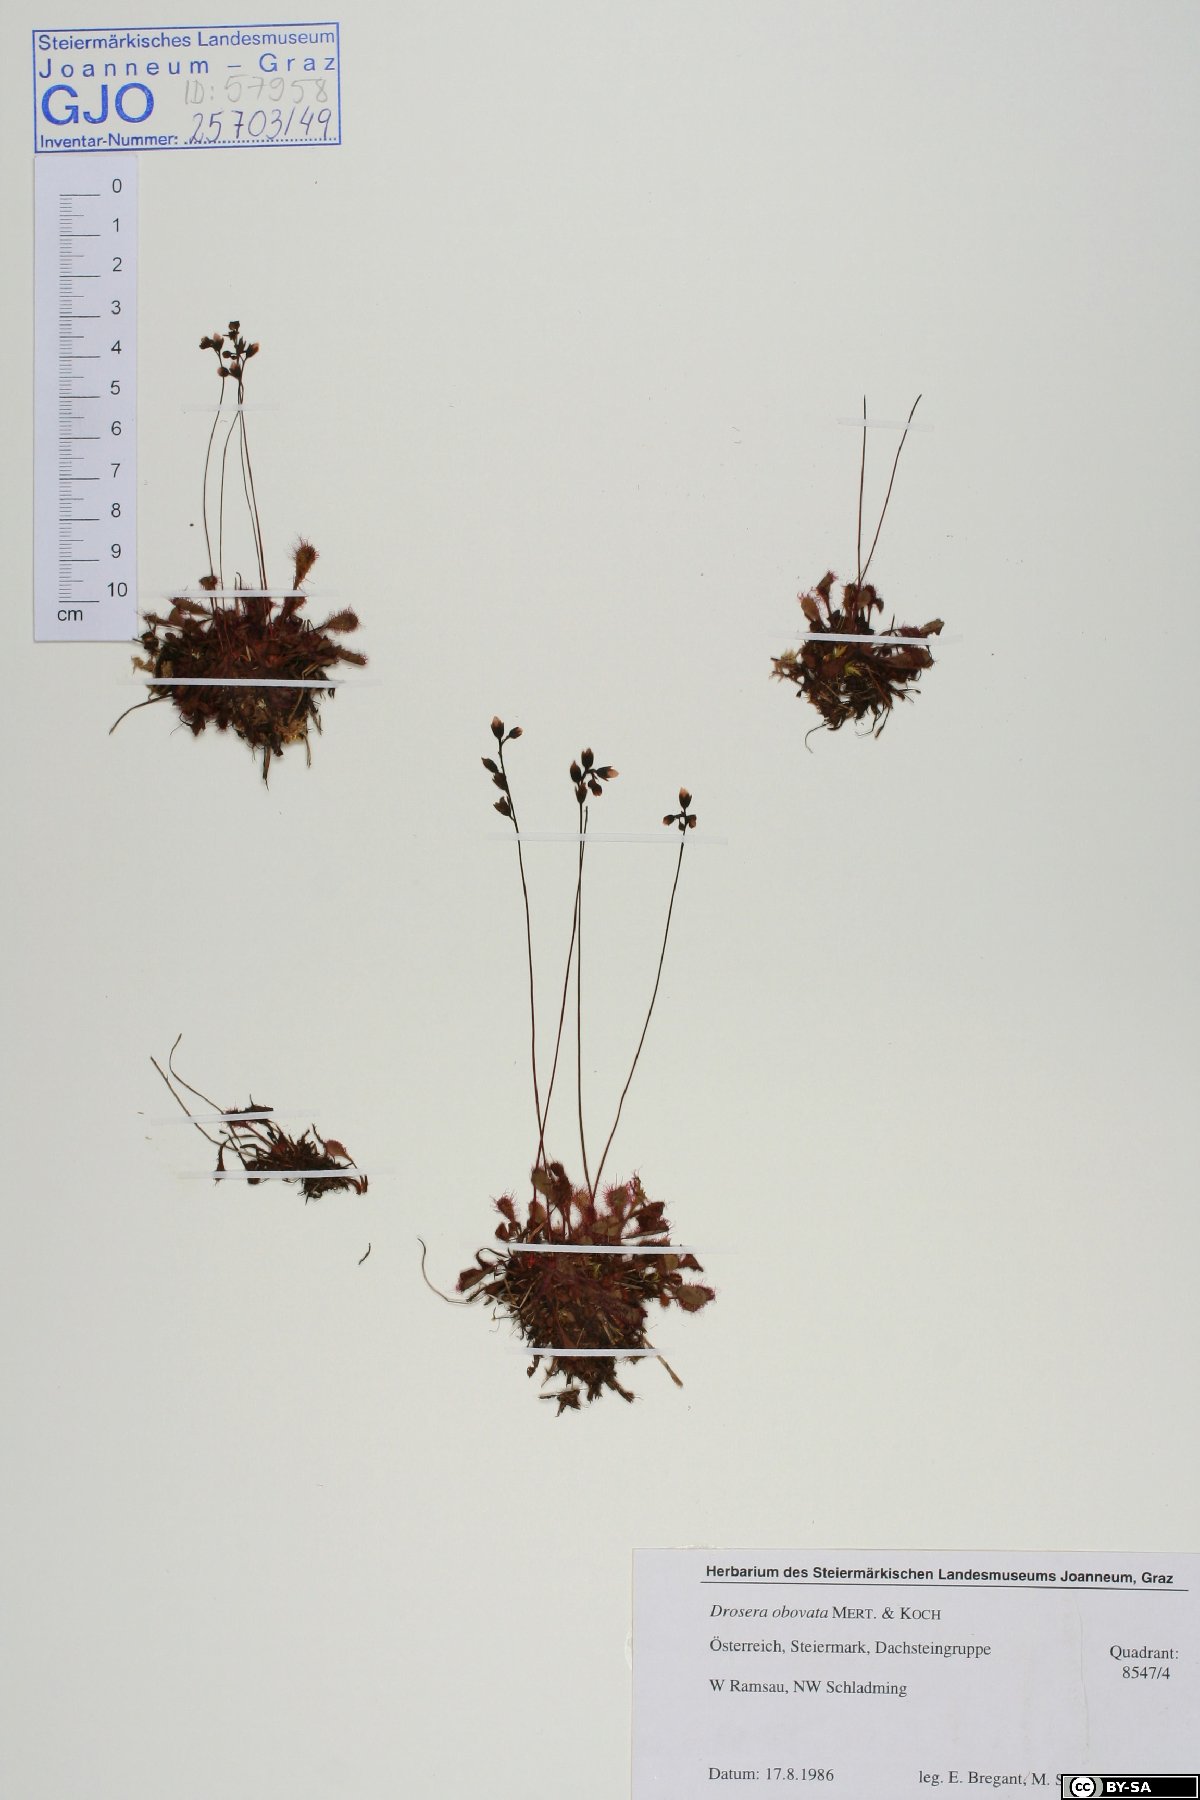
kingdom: Plantae
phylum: Tracheophyta
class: Magnoliopsida
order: Caryophyllales
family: Droseraceae
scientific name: Droseraceae
